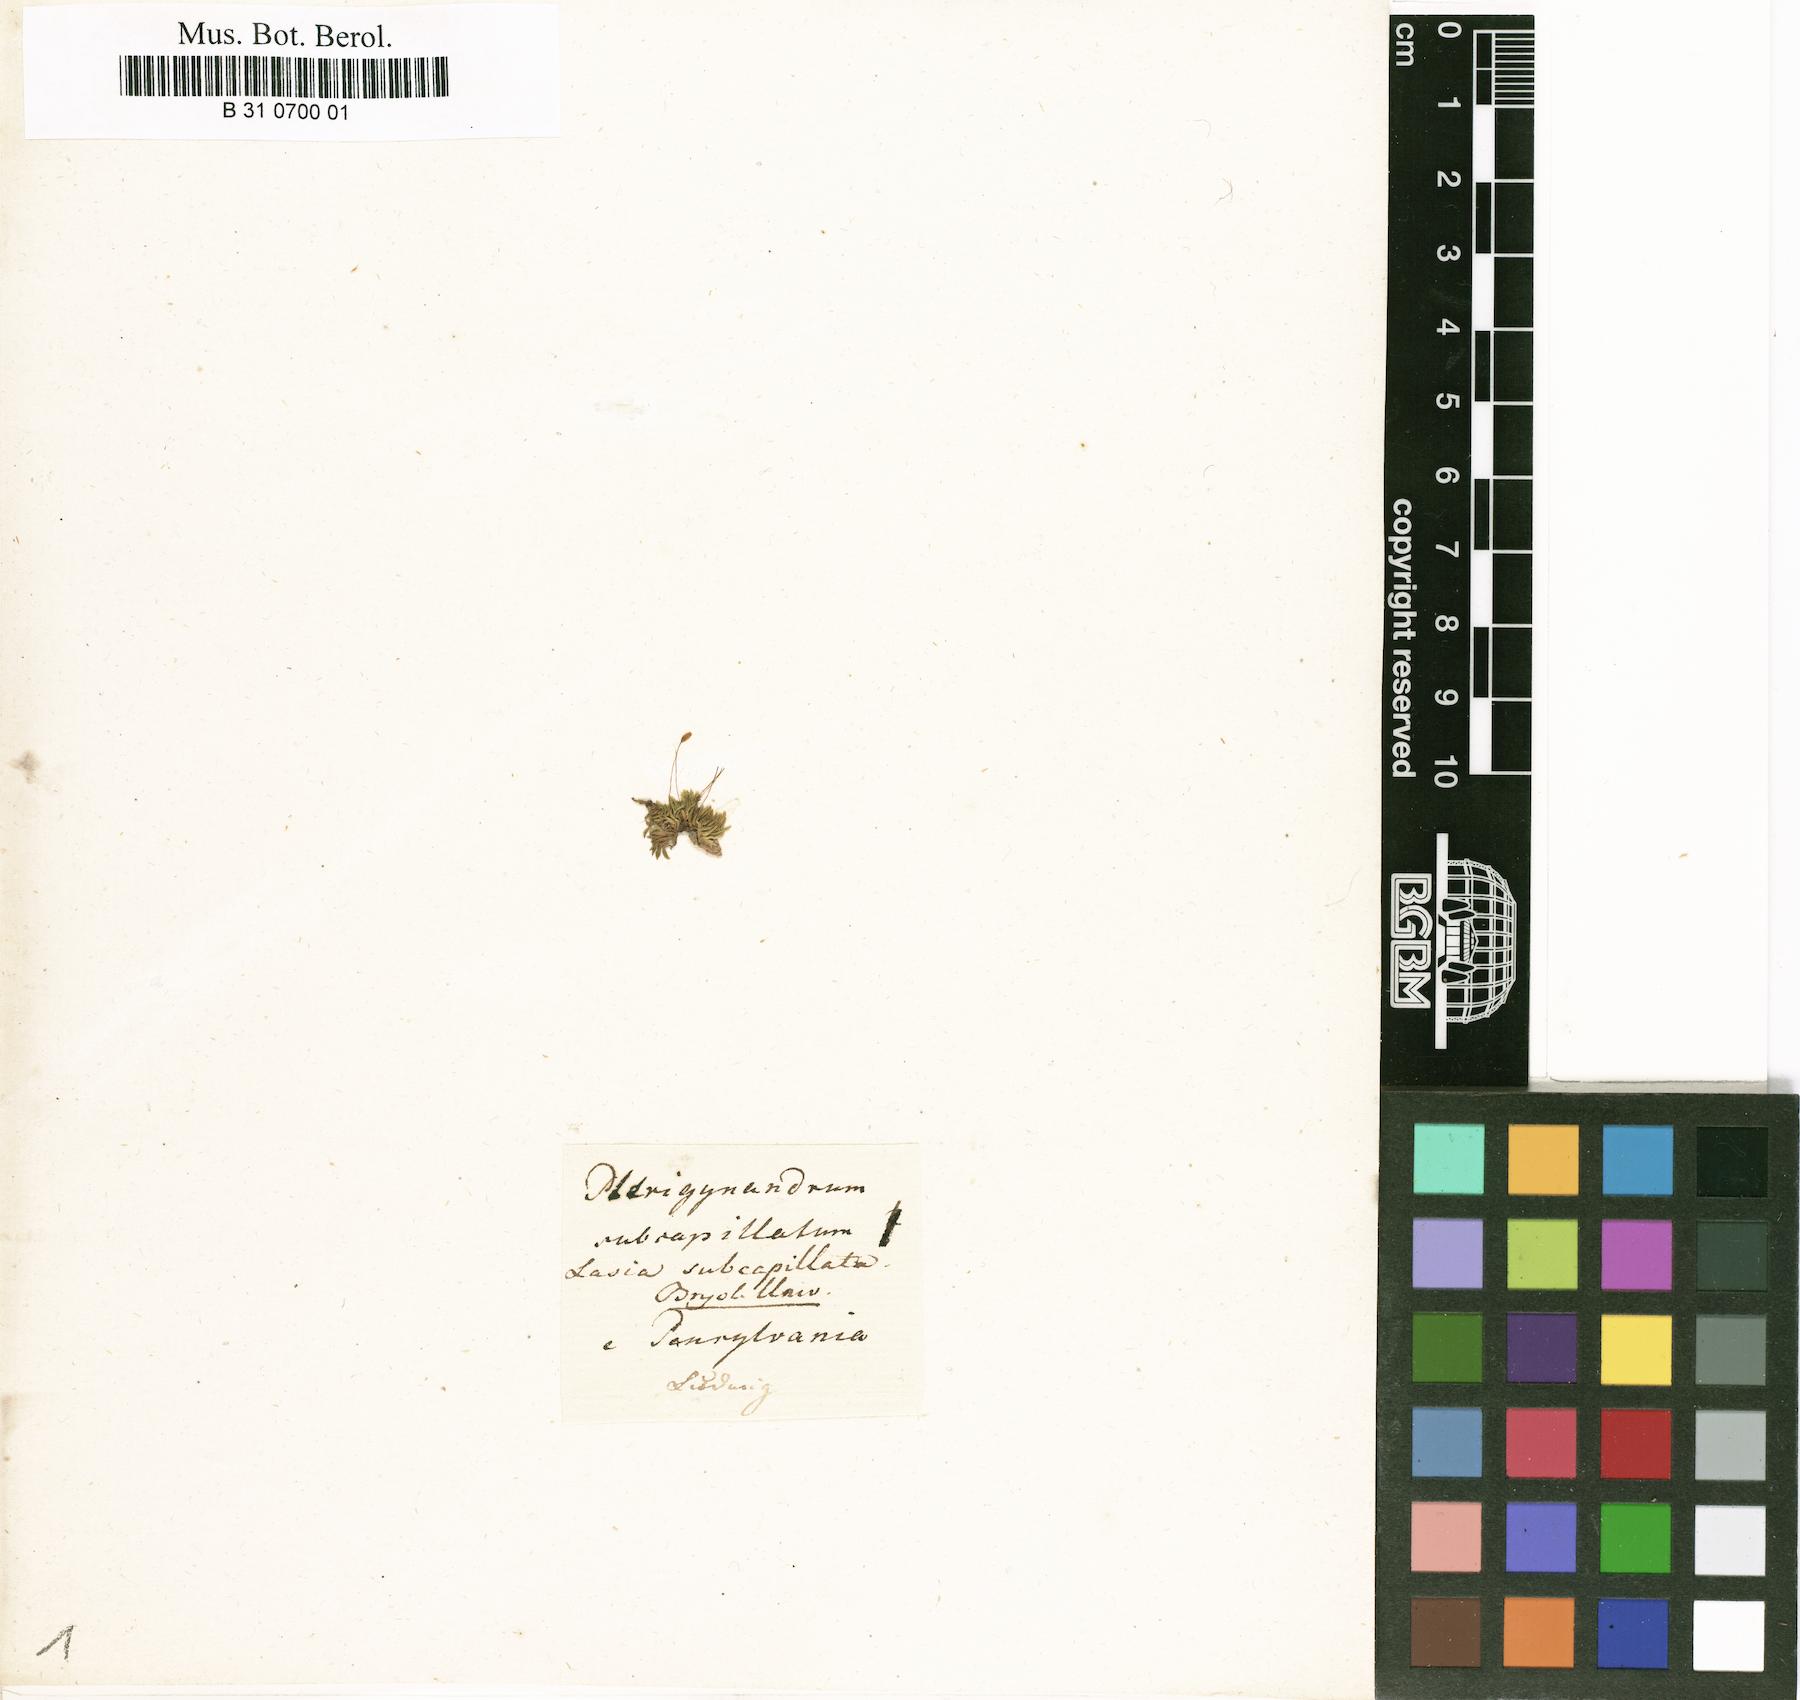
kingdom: Plantae
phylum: Bryophyta
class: Bryopsida
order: Hypnales
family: Brachytheciaceae
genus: Homalotheciella
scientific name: Homalotheciella subcapillata
